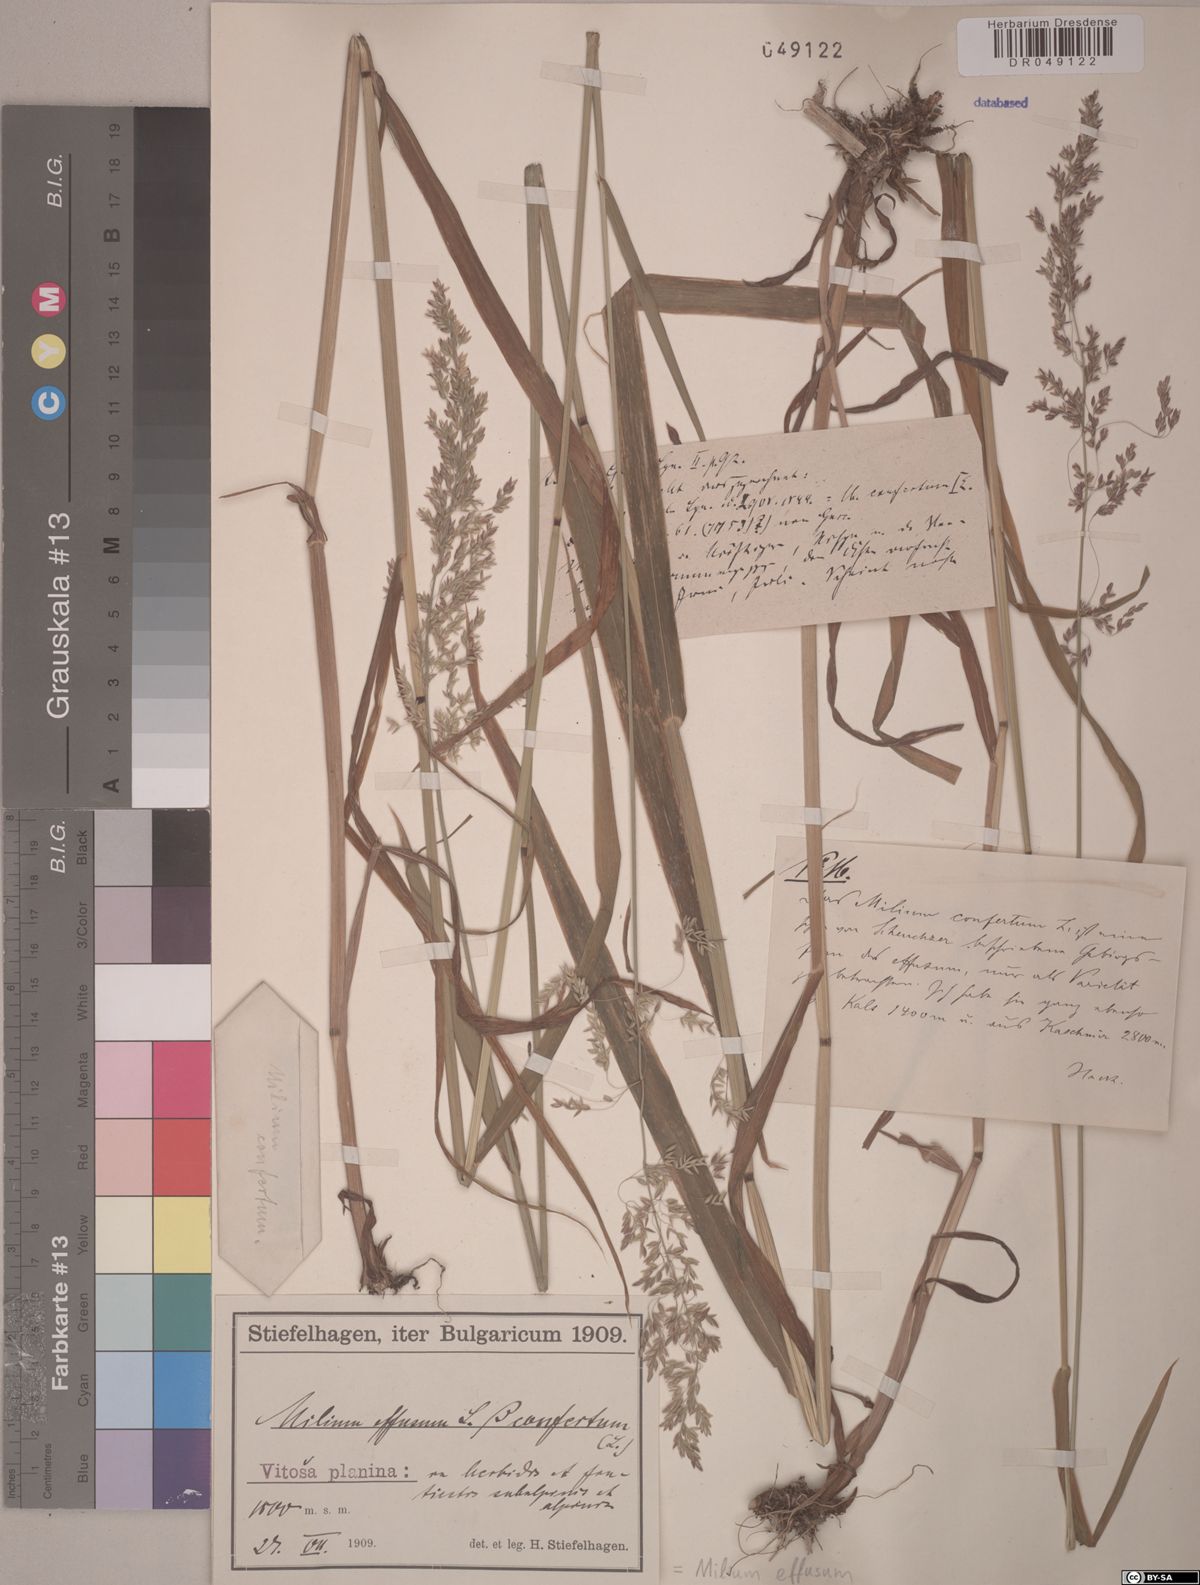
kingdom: Plantae
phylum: Tracheophyta
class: Liliopsida
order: Poales
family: Poaceae
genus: Milium
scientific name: Milium effusum
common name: Wood millet
